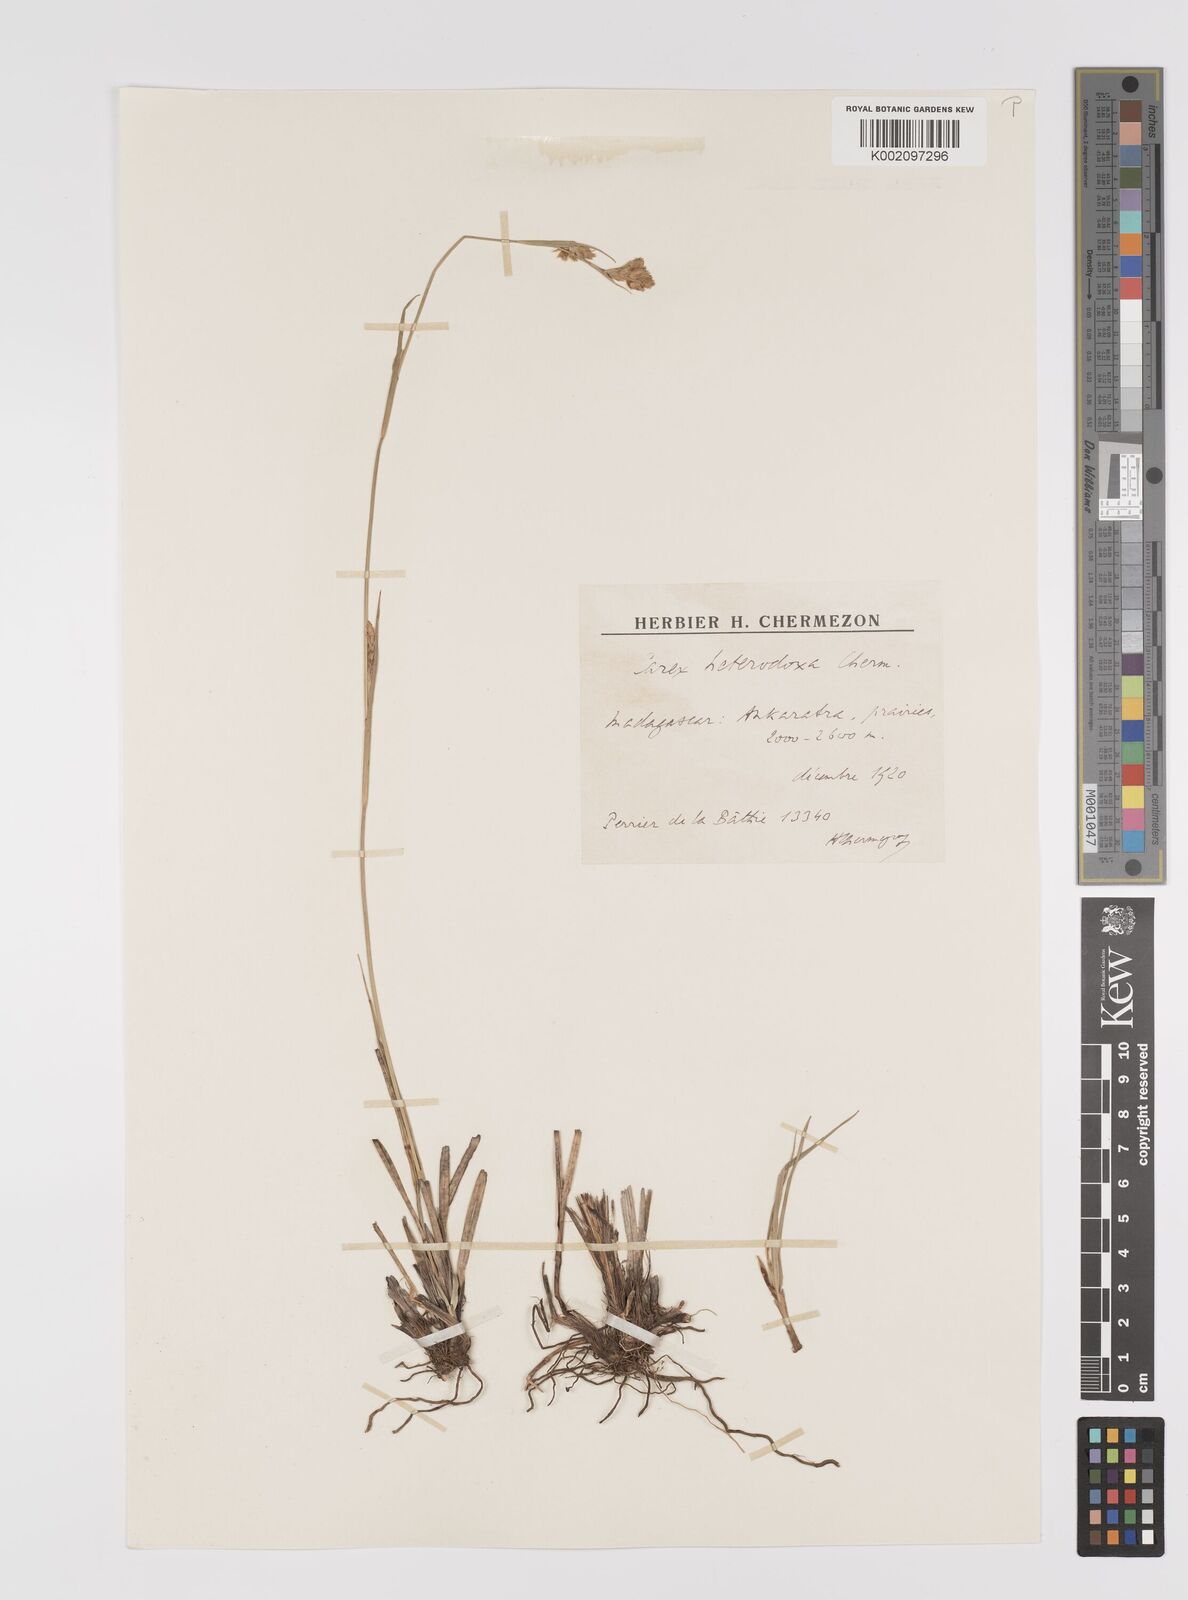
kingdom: Plantae
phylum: Tracheophyta
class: Liliopsida
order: Poales
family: Cyperaceae
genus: Carex
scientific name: Carex heterodoxa
